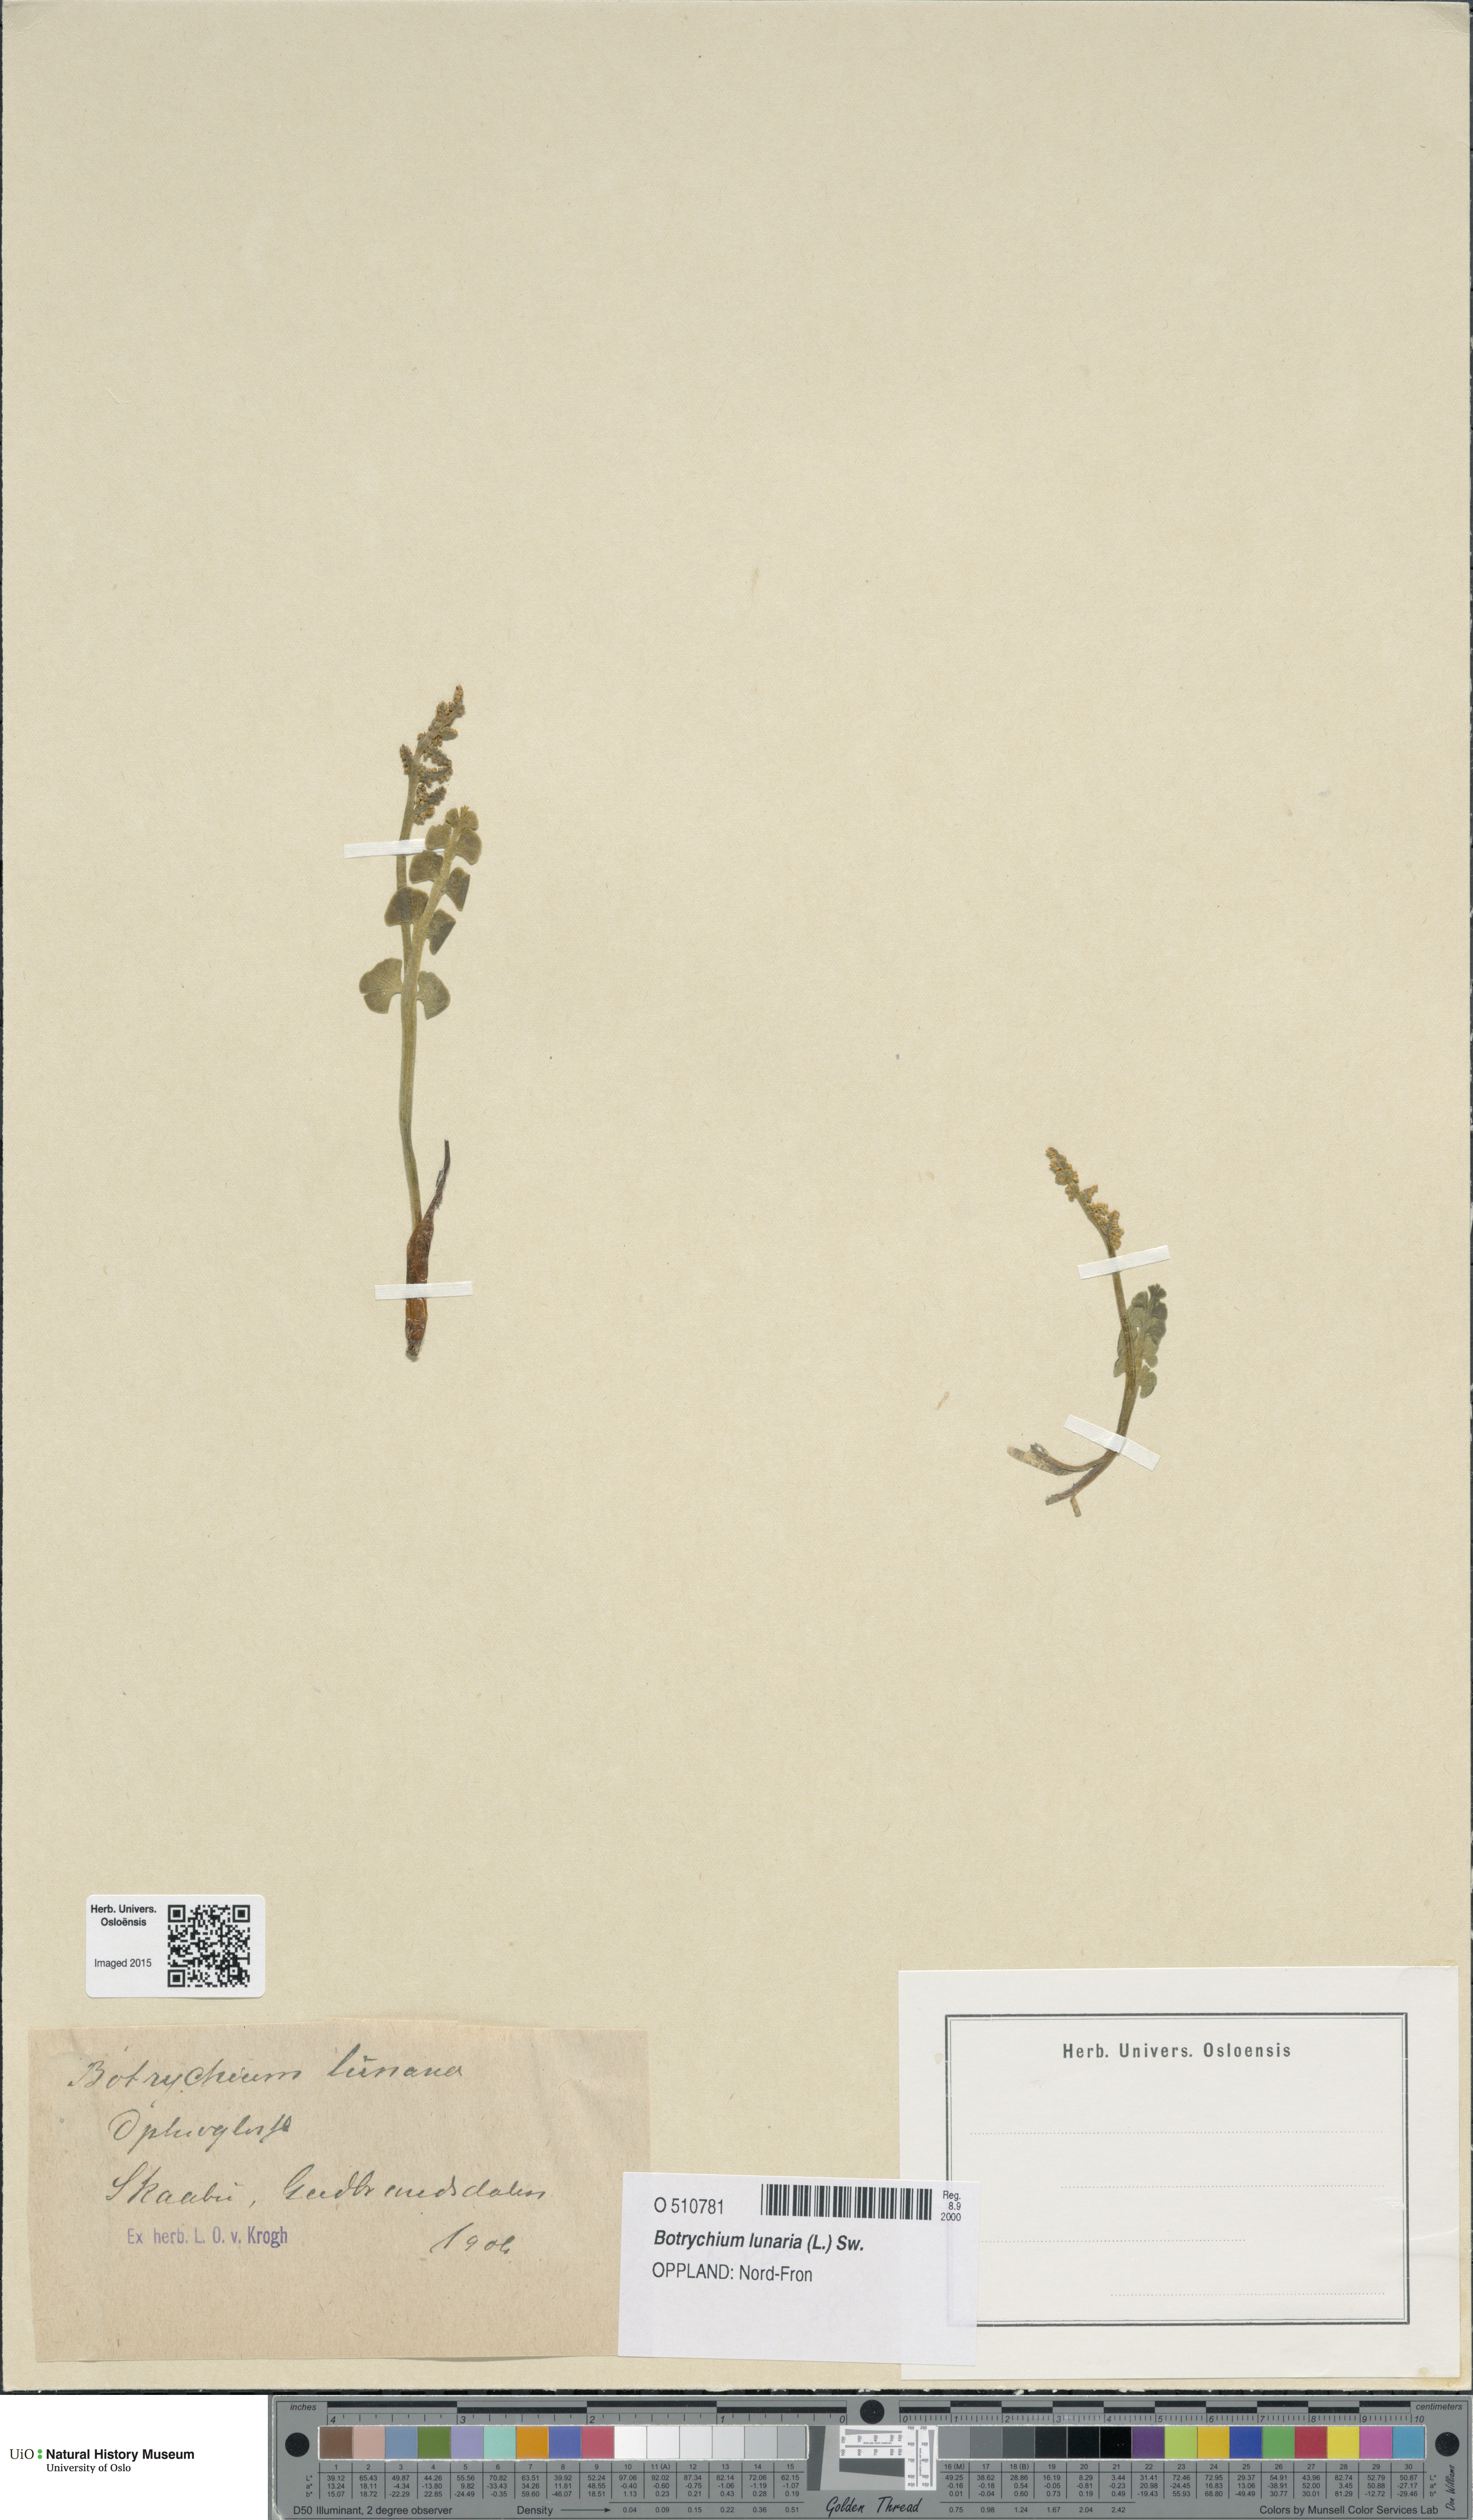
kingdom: Plantae
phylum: Tracheophyta
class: Polypodiopsida
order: Ophioglossales
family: Ophioglossaceae
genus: Botrychium
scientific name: Botrychium lunaria
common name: Moonwort
